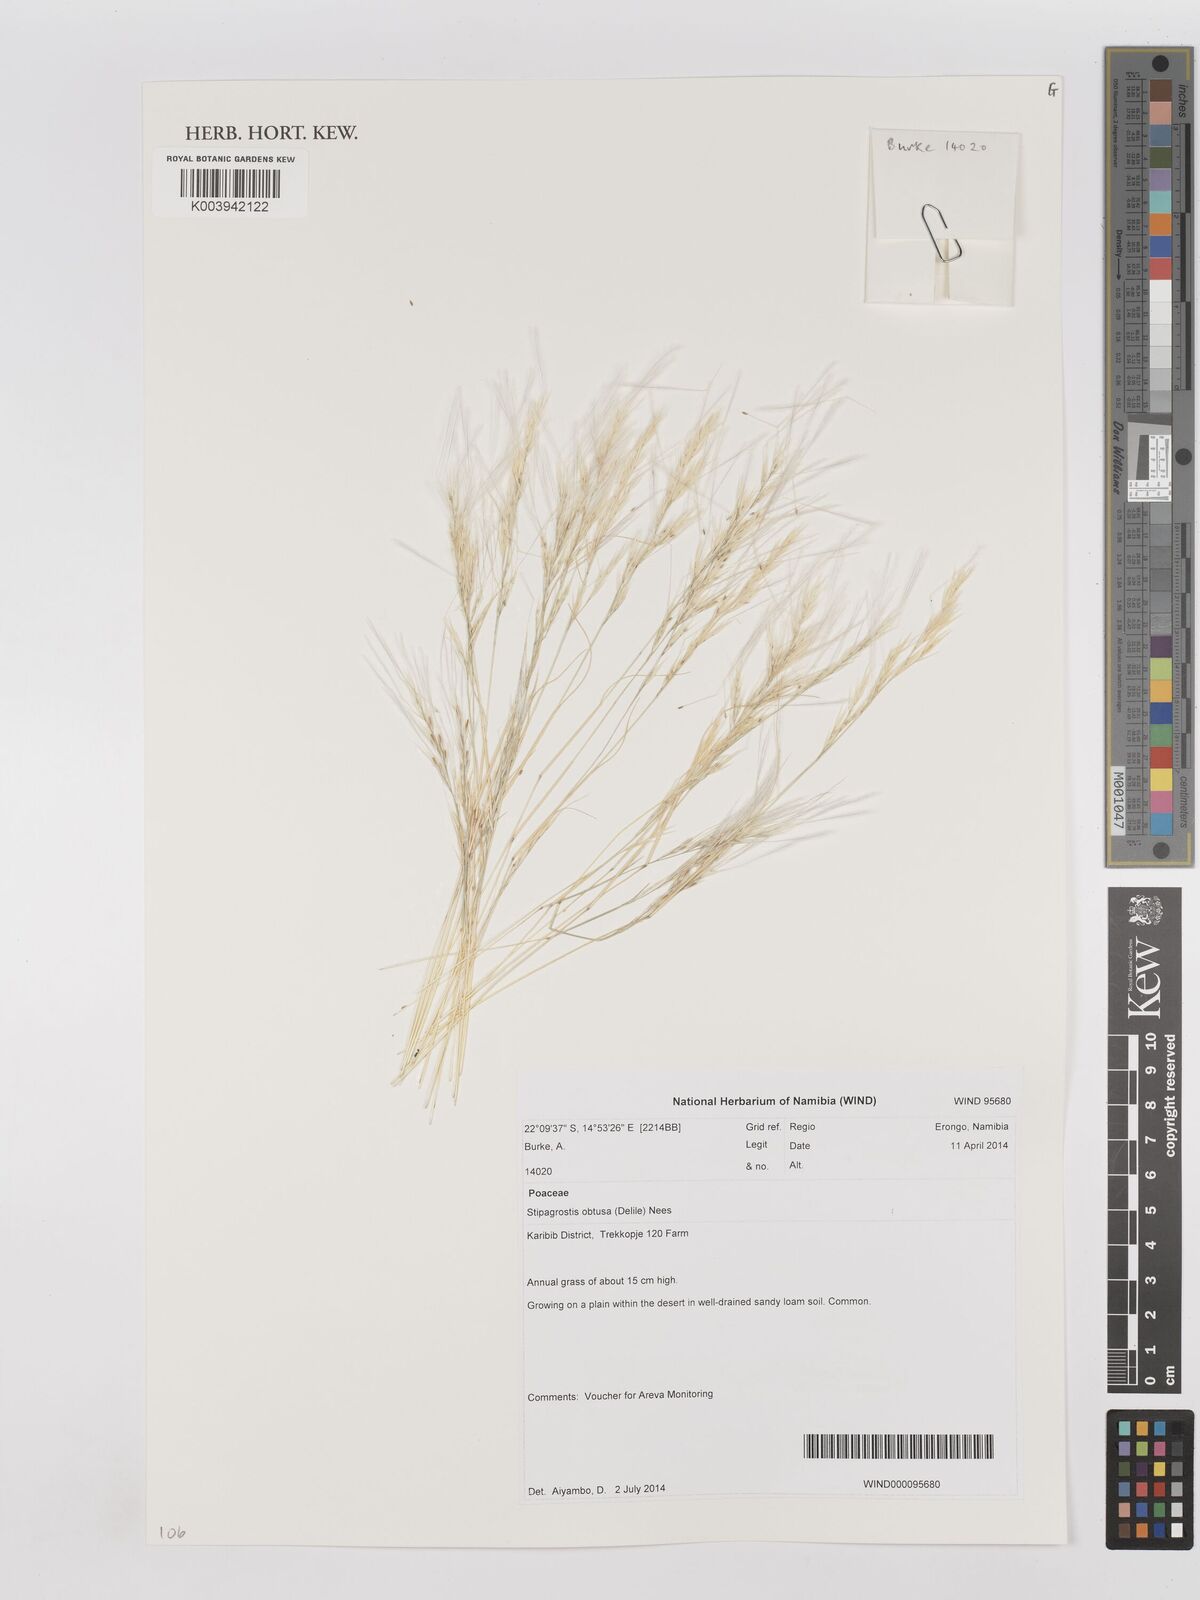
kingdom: Plantae
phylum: Tracheophyta
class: Liliopsida
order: Poales
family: Poaceae
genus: Stipagrostis
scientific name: Stipagrostis obtusa
